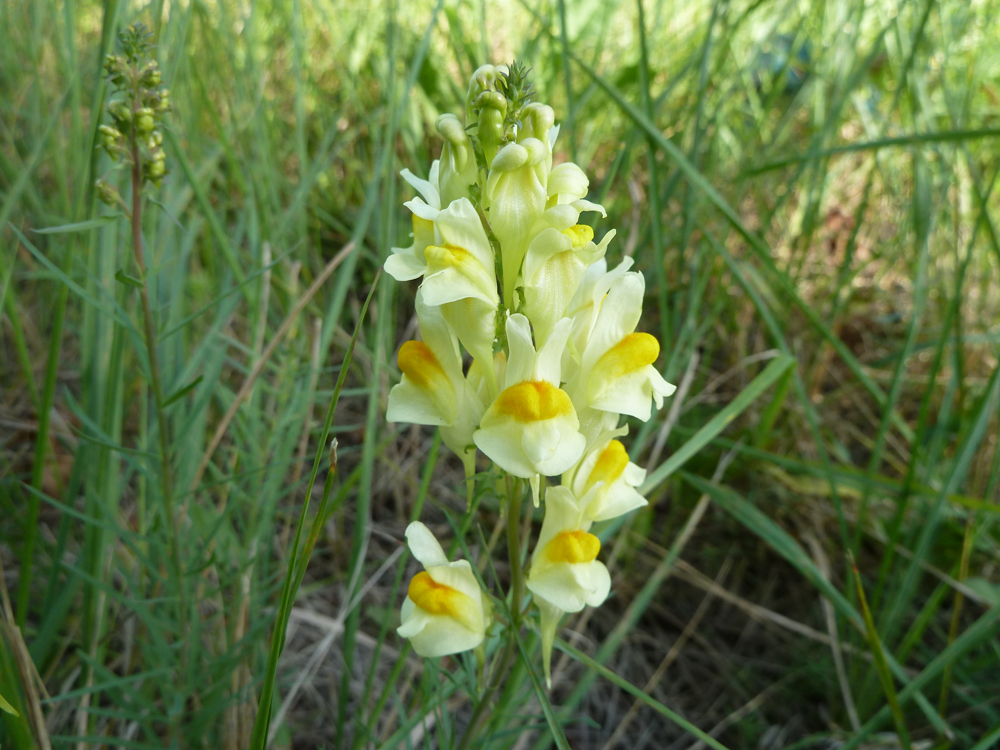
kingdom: Plantae
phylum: Tracheophyta
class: Magnoliopsida
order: Lamiales
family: Plantaginaceae
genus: Linaria
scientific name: Linaria vulgaris
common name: Butter and eggs
